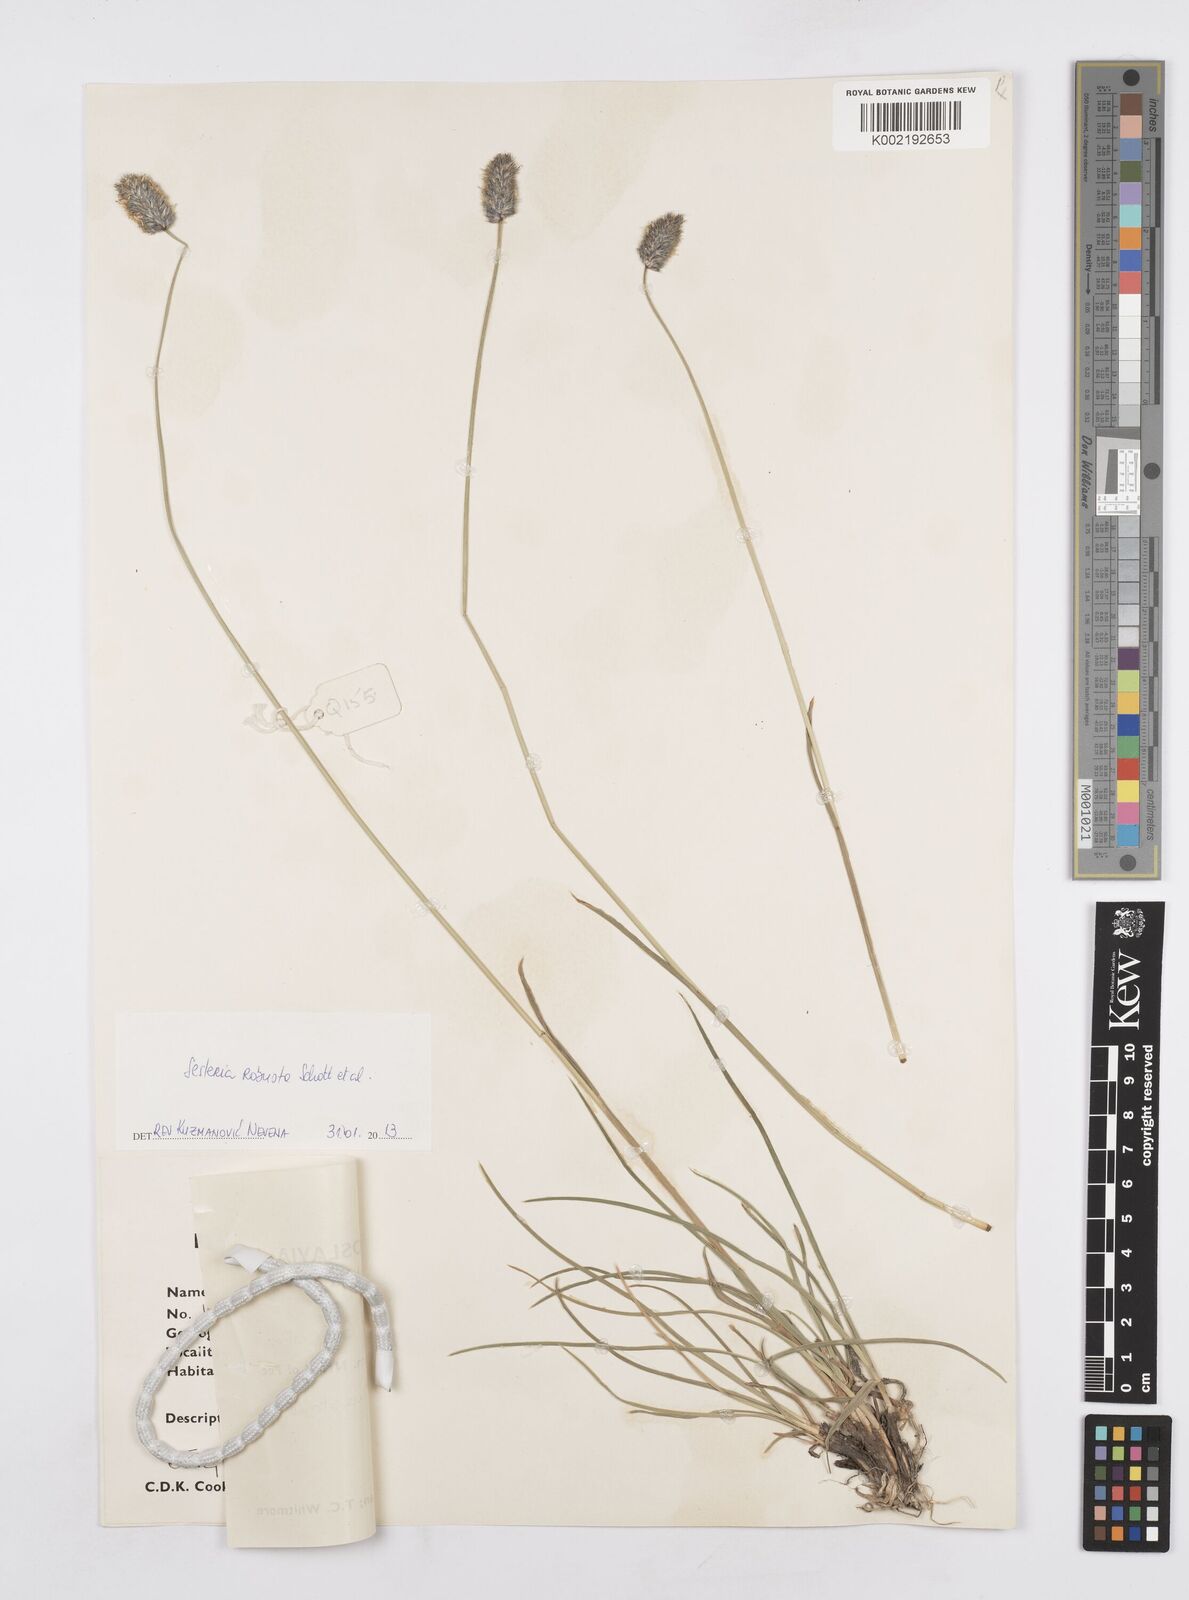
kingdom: Plantae
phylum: Tracheophyta
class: Liliopsida
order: Poales
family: Poaceae
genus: Sesleria
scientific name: Sesleria robusta
